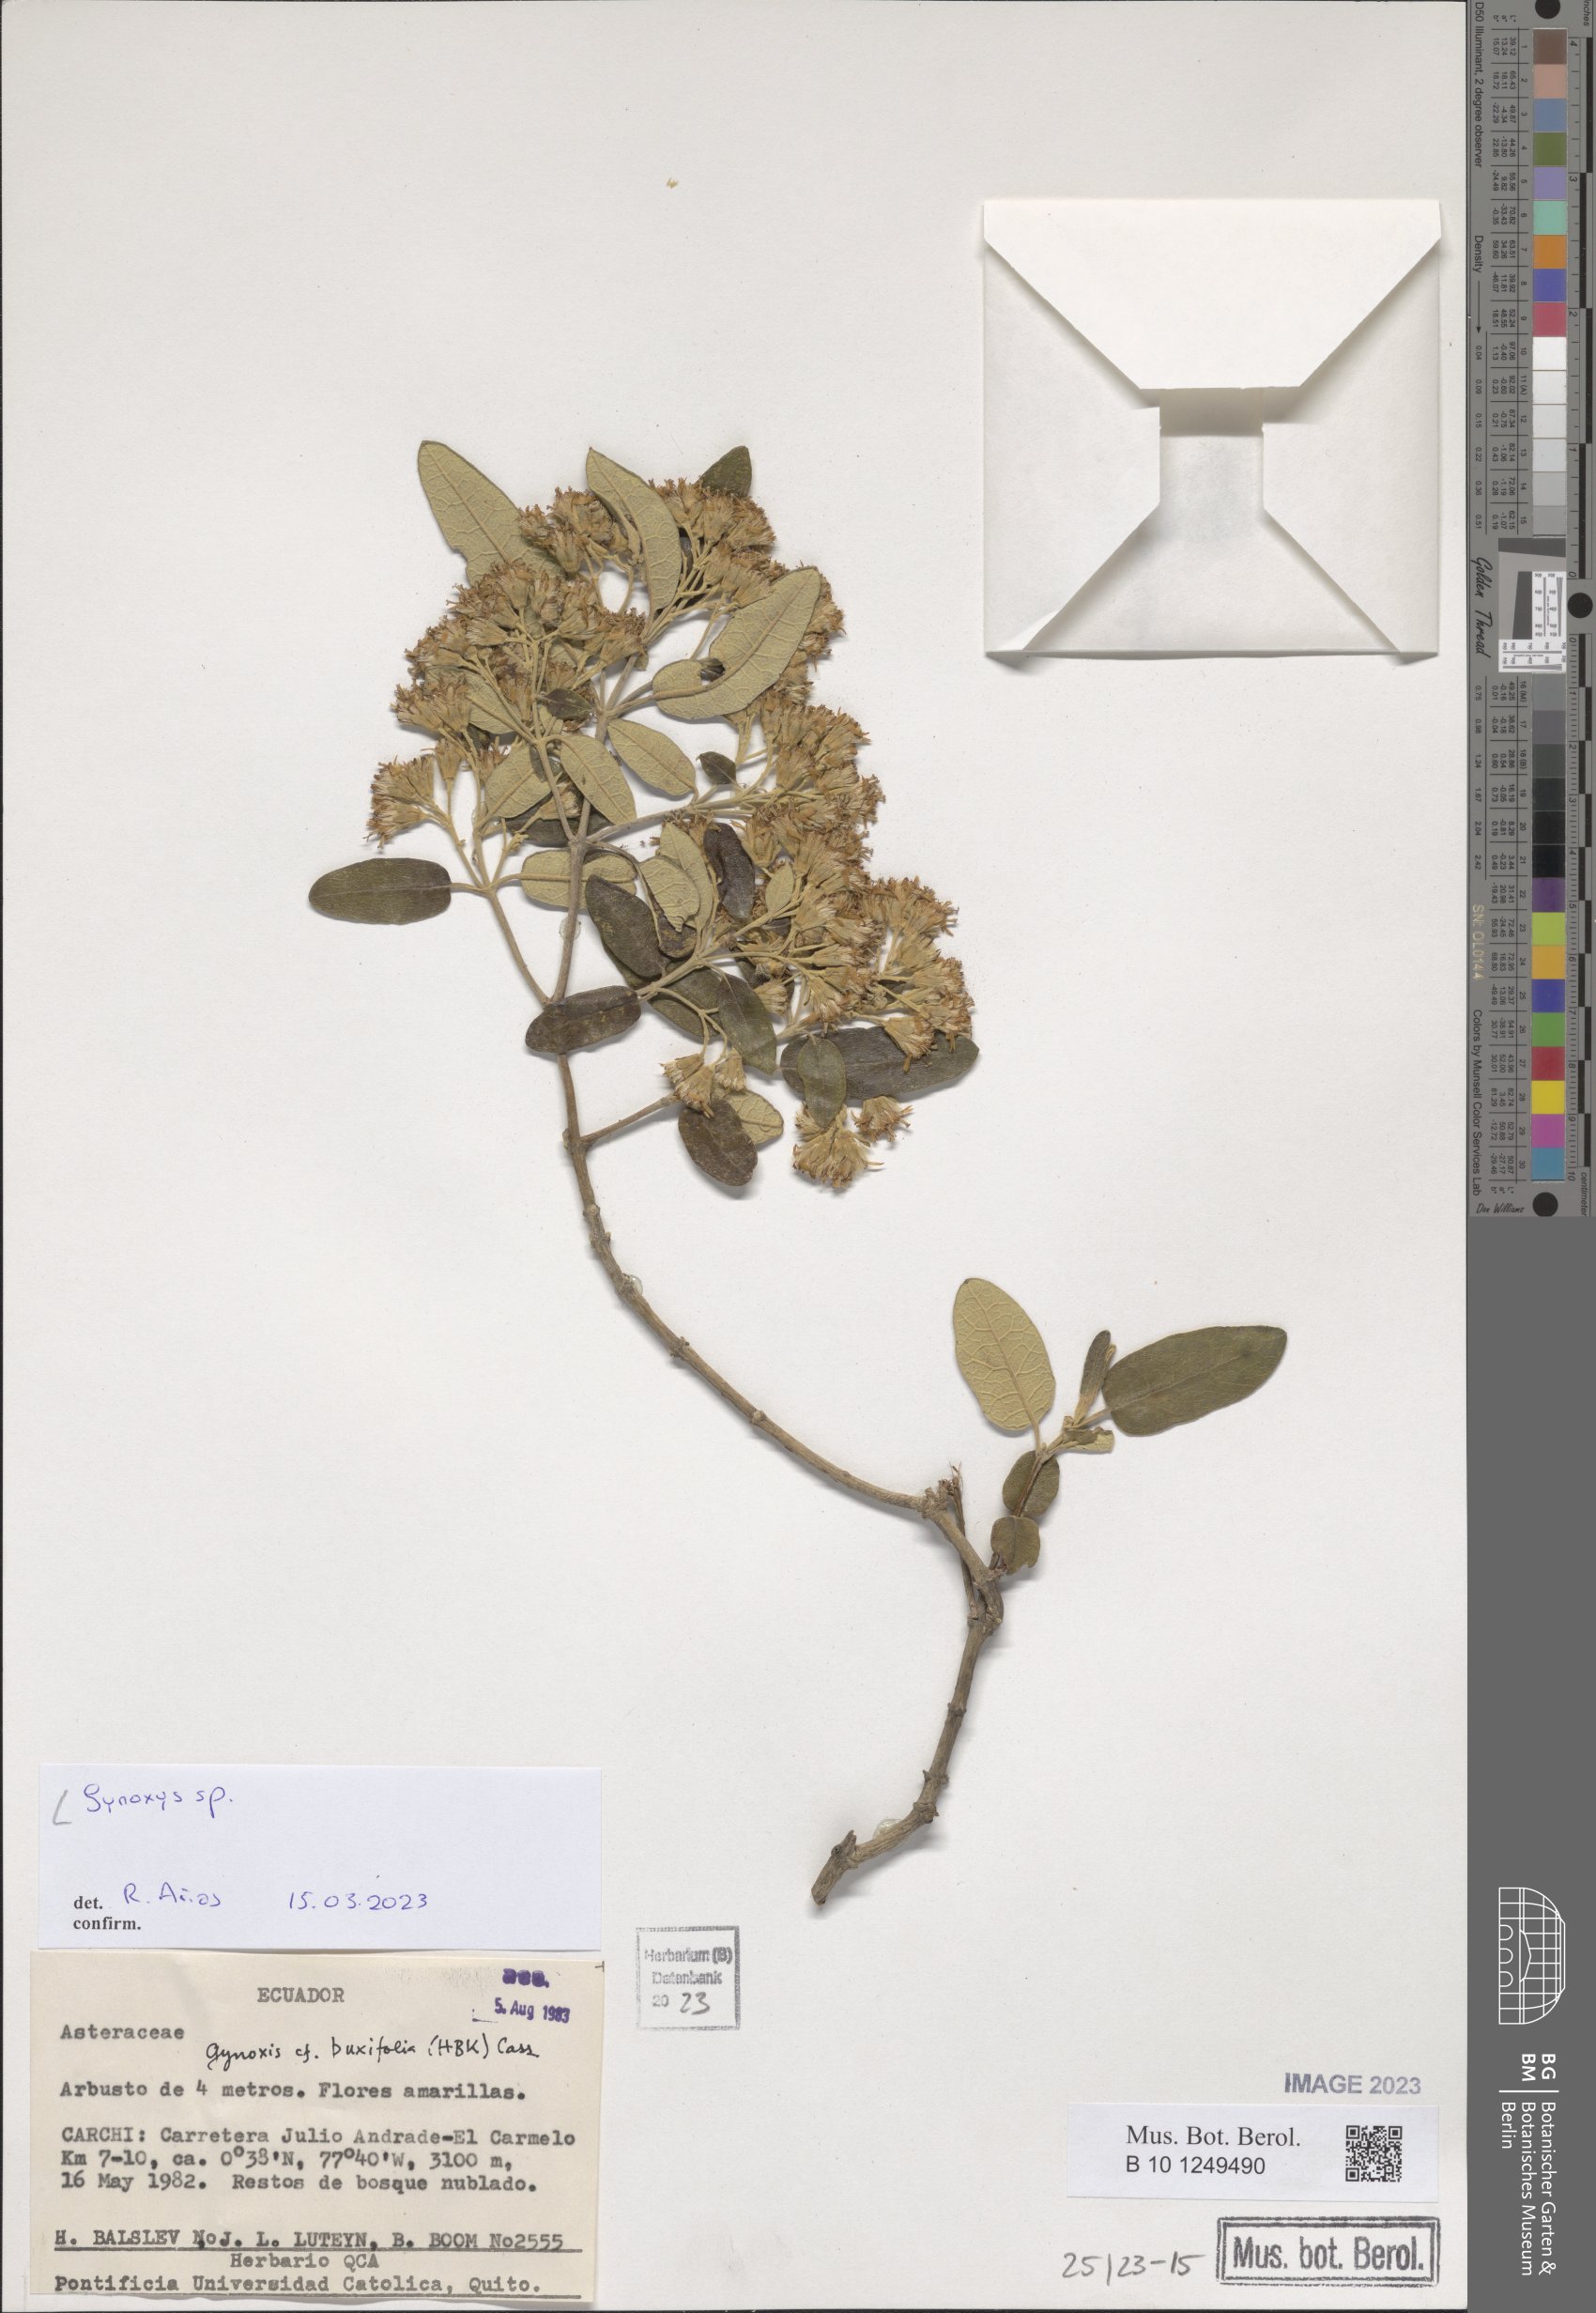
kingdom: Plantae
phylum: Tracheophyta
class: Magnoliopsida
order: Asterales
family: Asteraceae
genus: Gynoxys
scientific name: Gynoxys
